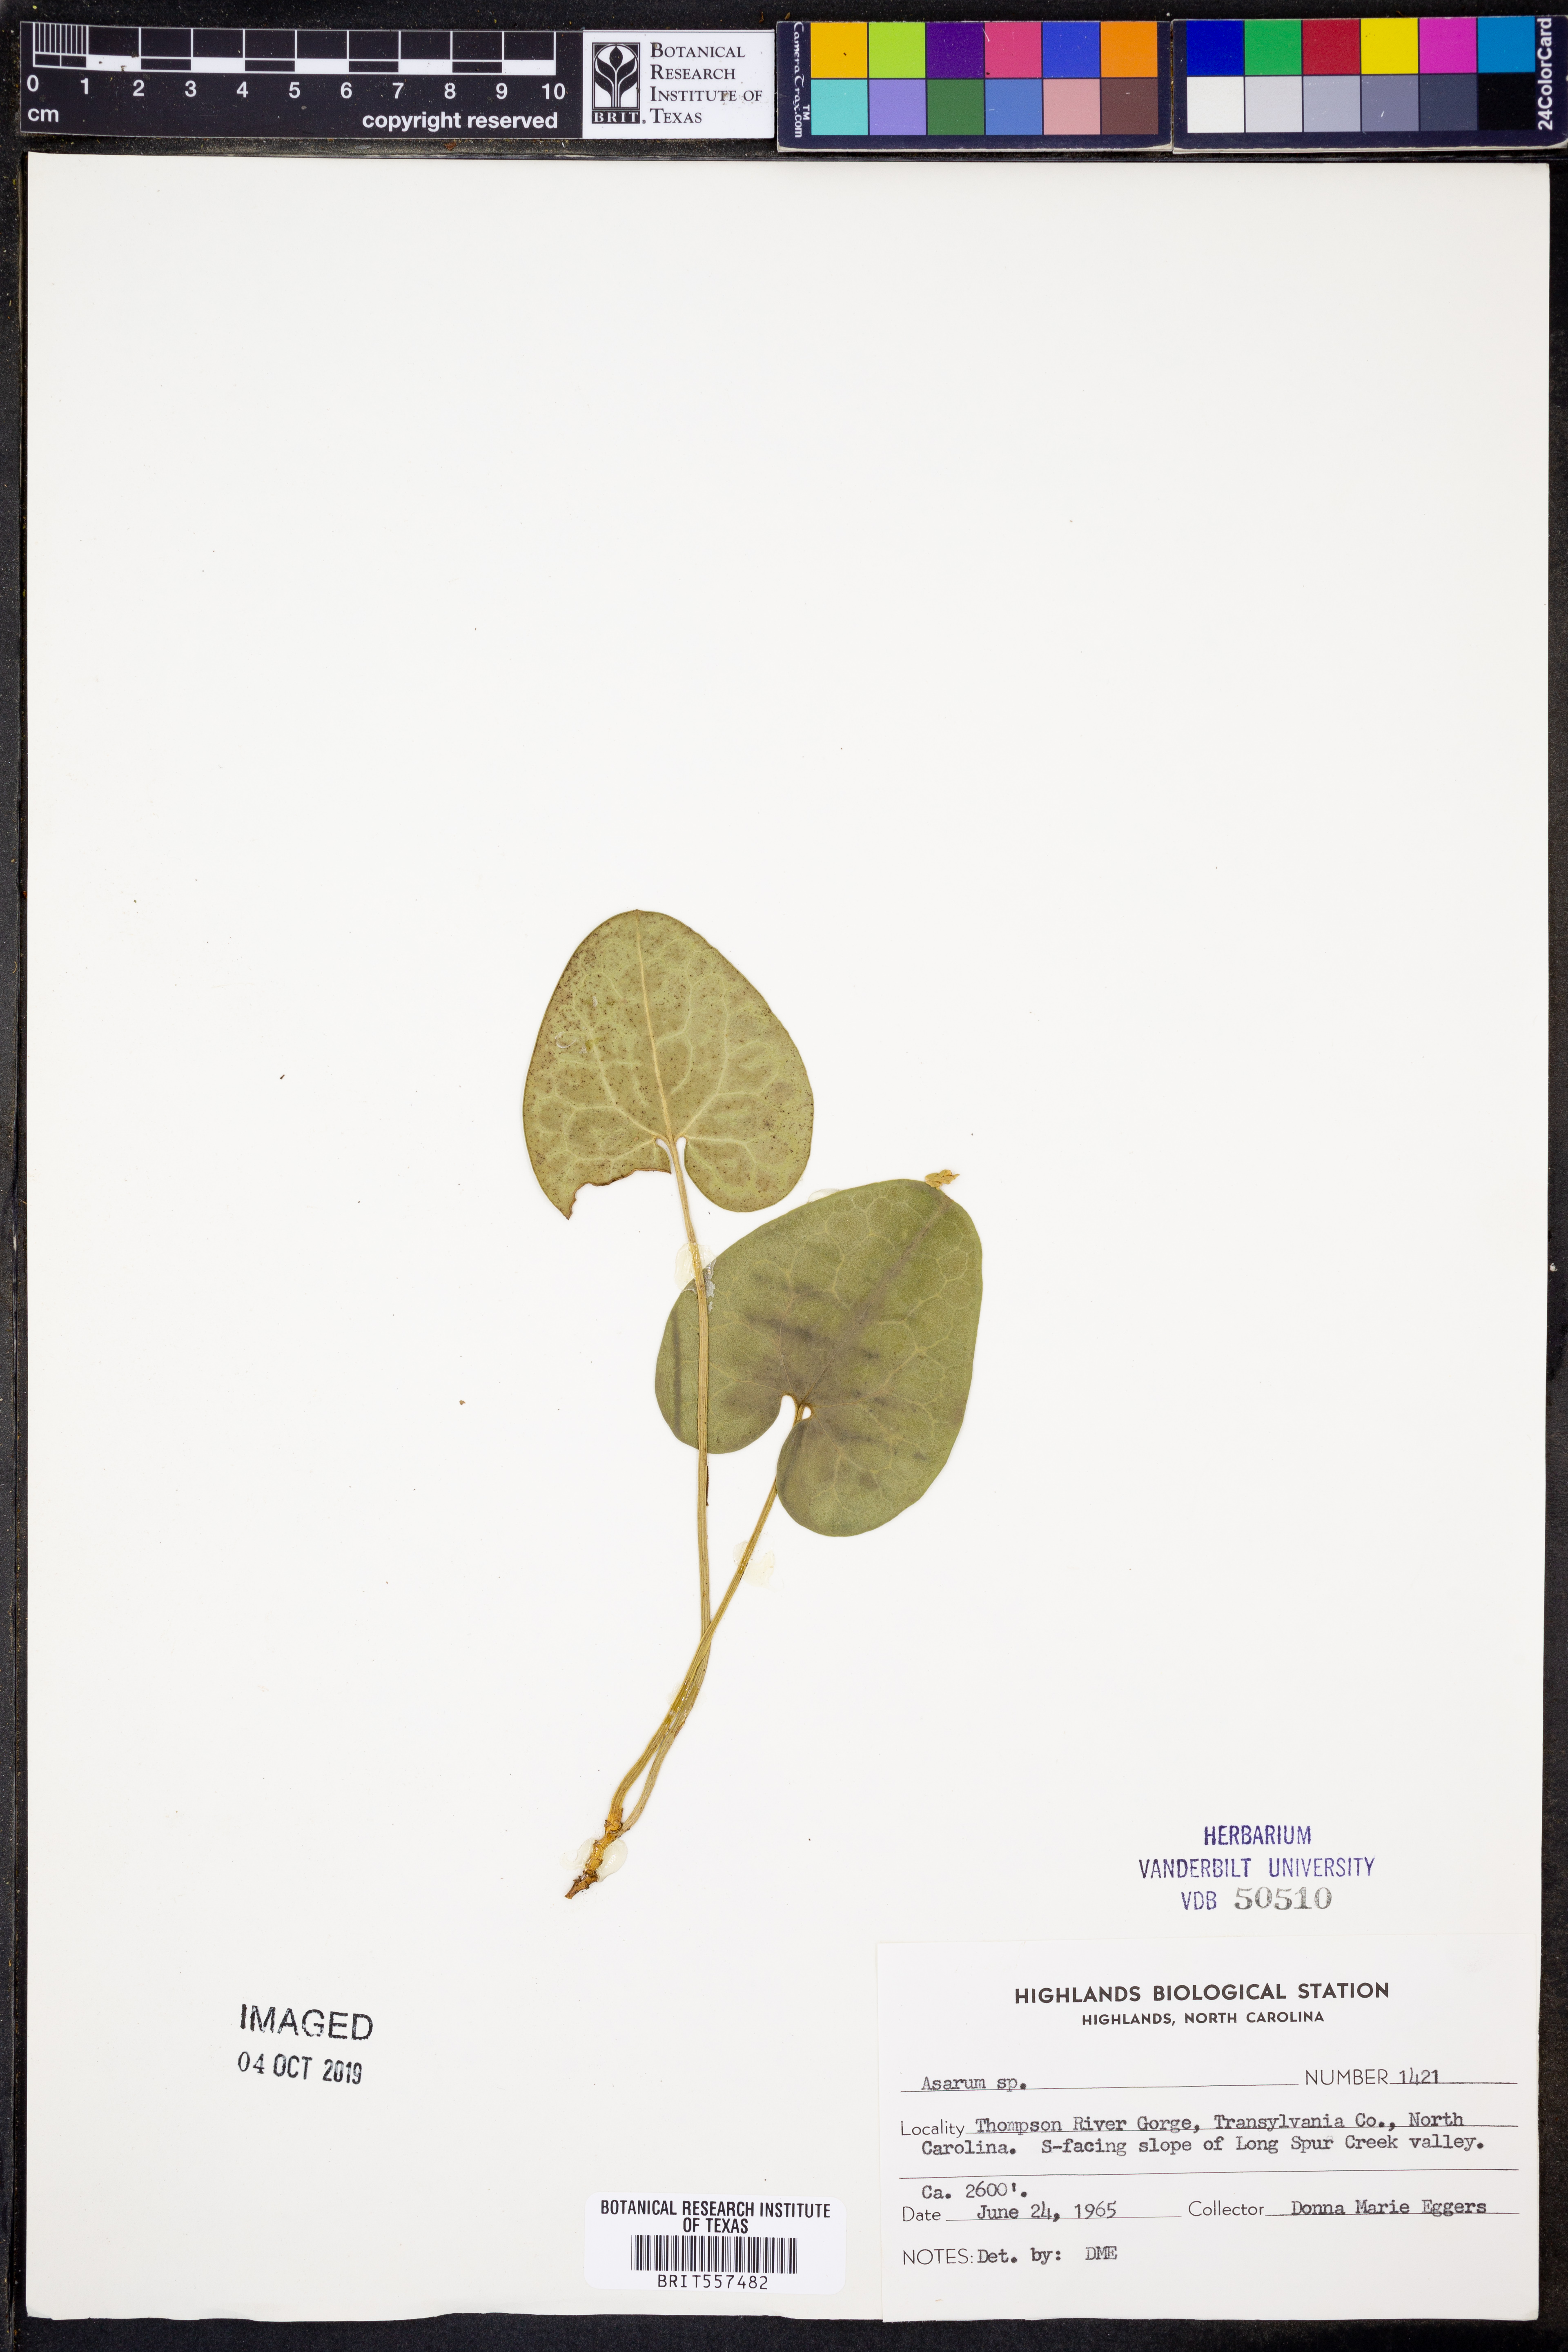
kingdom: Plantae
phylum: Tracheophyta
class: Magnoliopsida
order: Piperales
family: Aristolochiaceae
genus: Asarum
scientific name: Asarum
